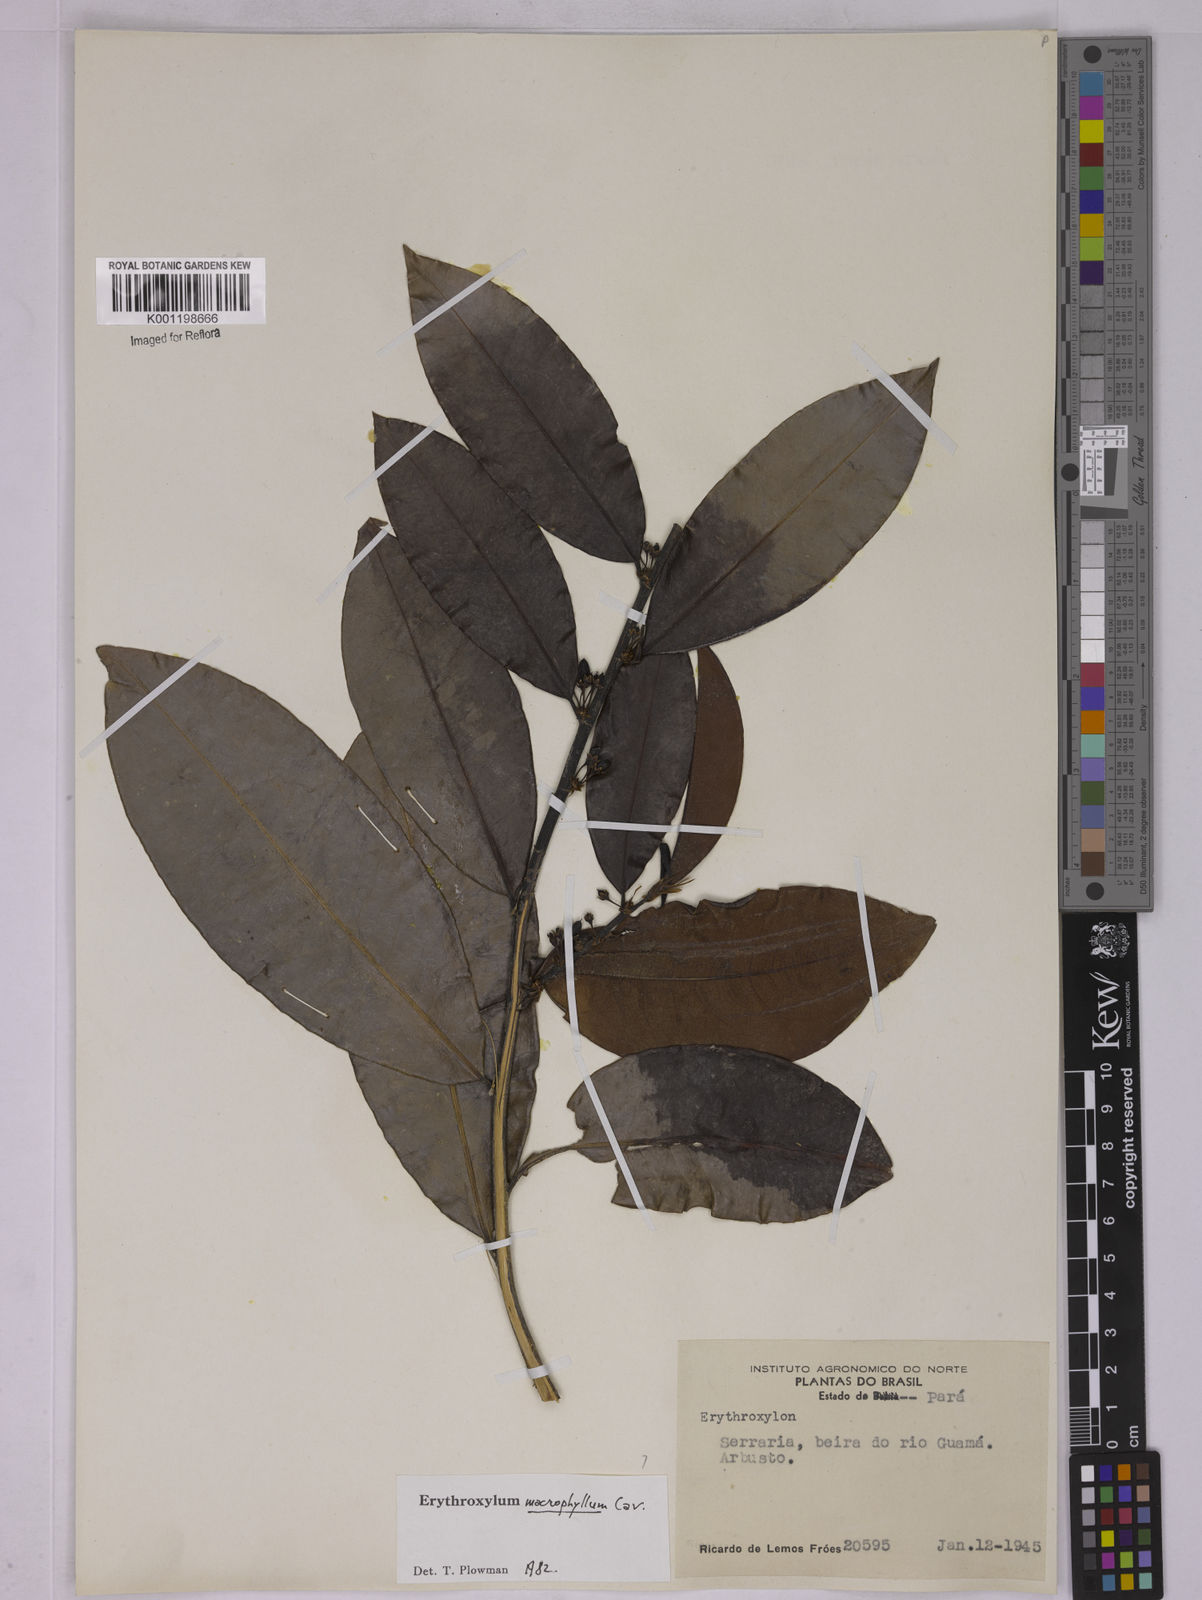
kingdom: Plantae
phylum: Tracheophyta
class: Magnoliopsida
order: Malpighiales
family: Erythroxylaceae
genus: Erythroxylum
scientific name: Erythroxylum macrophyllum
